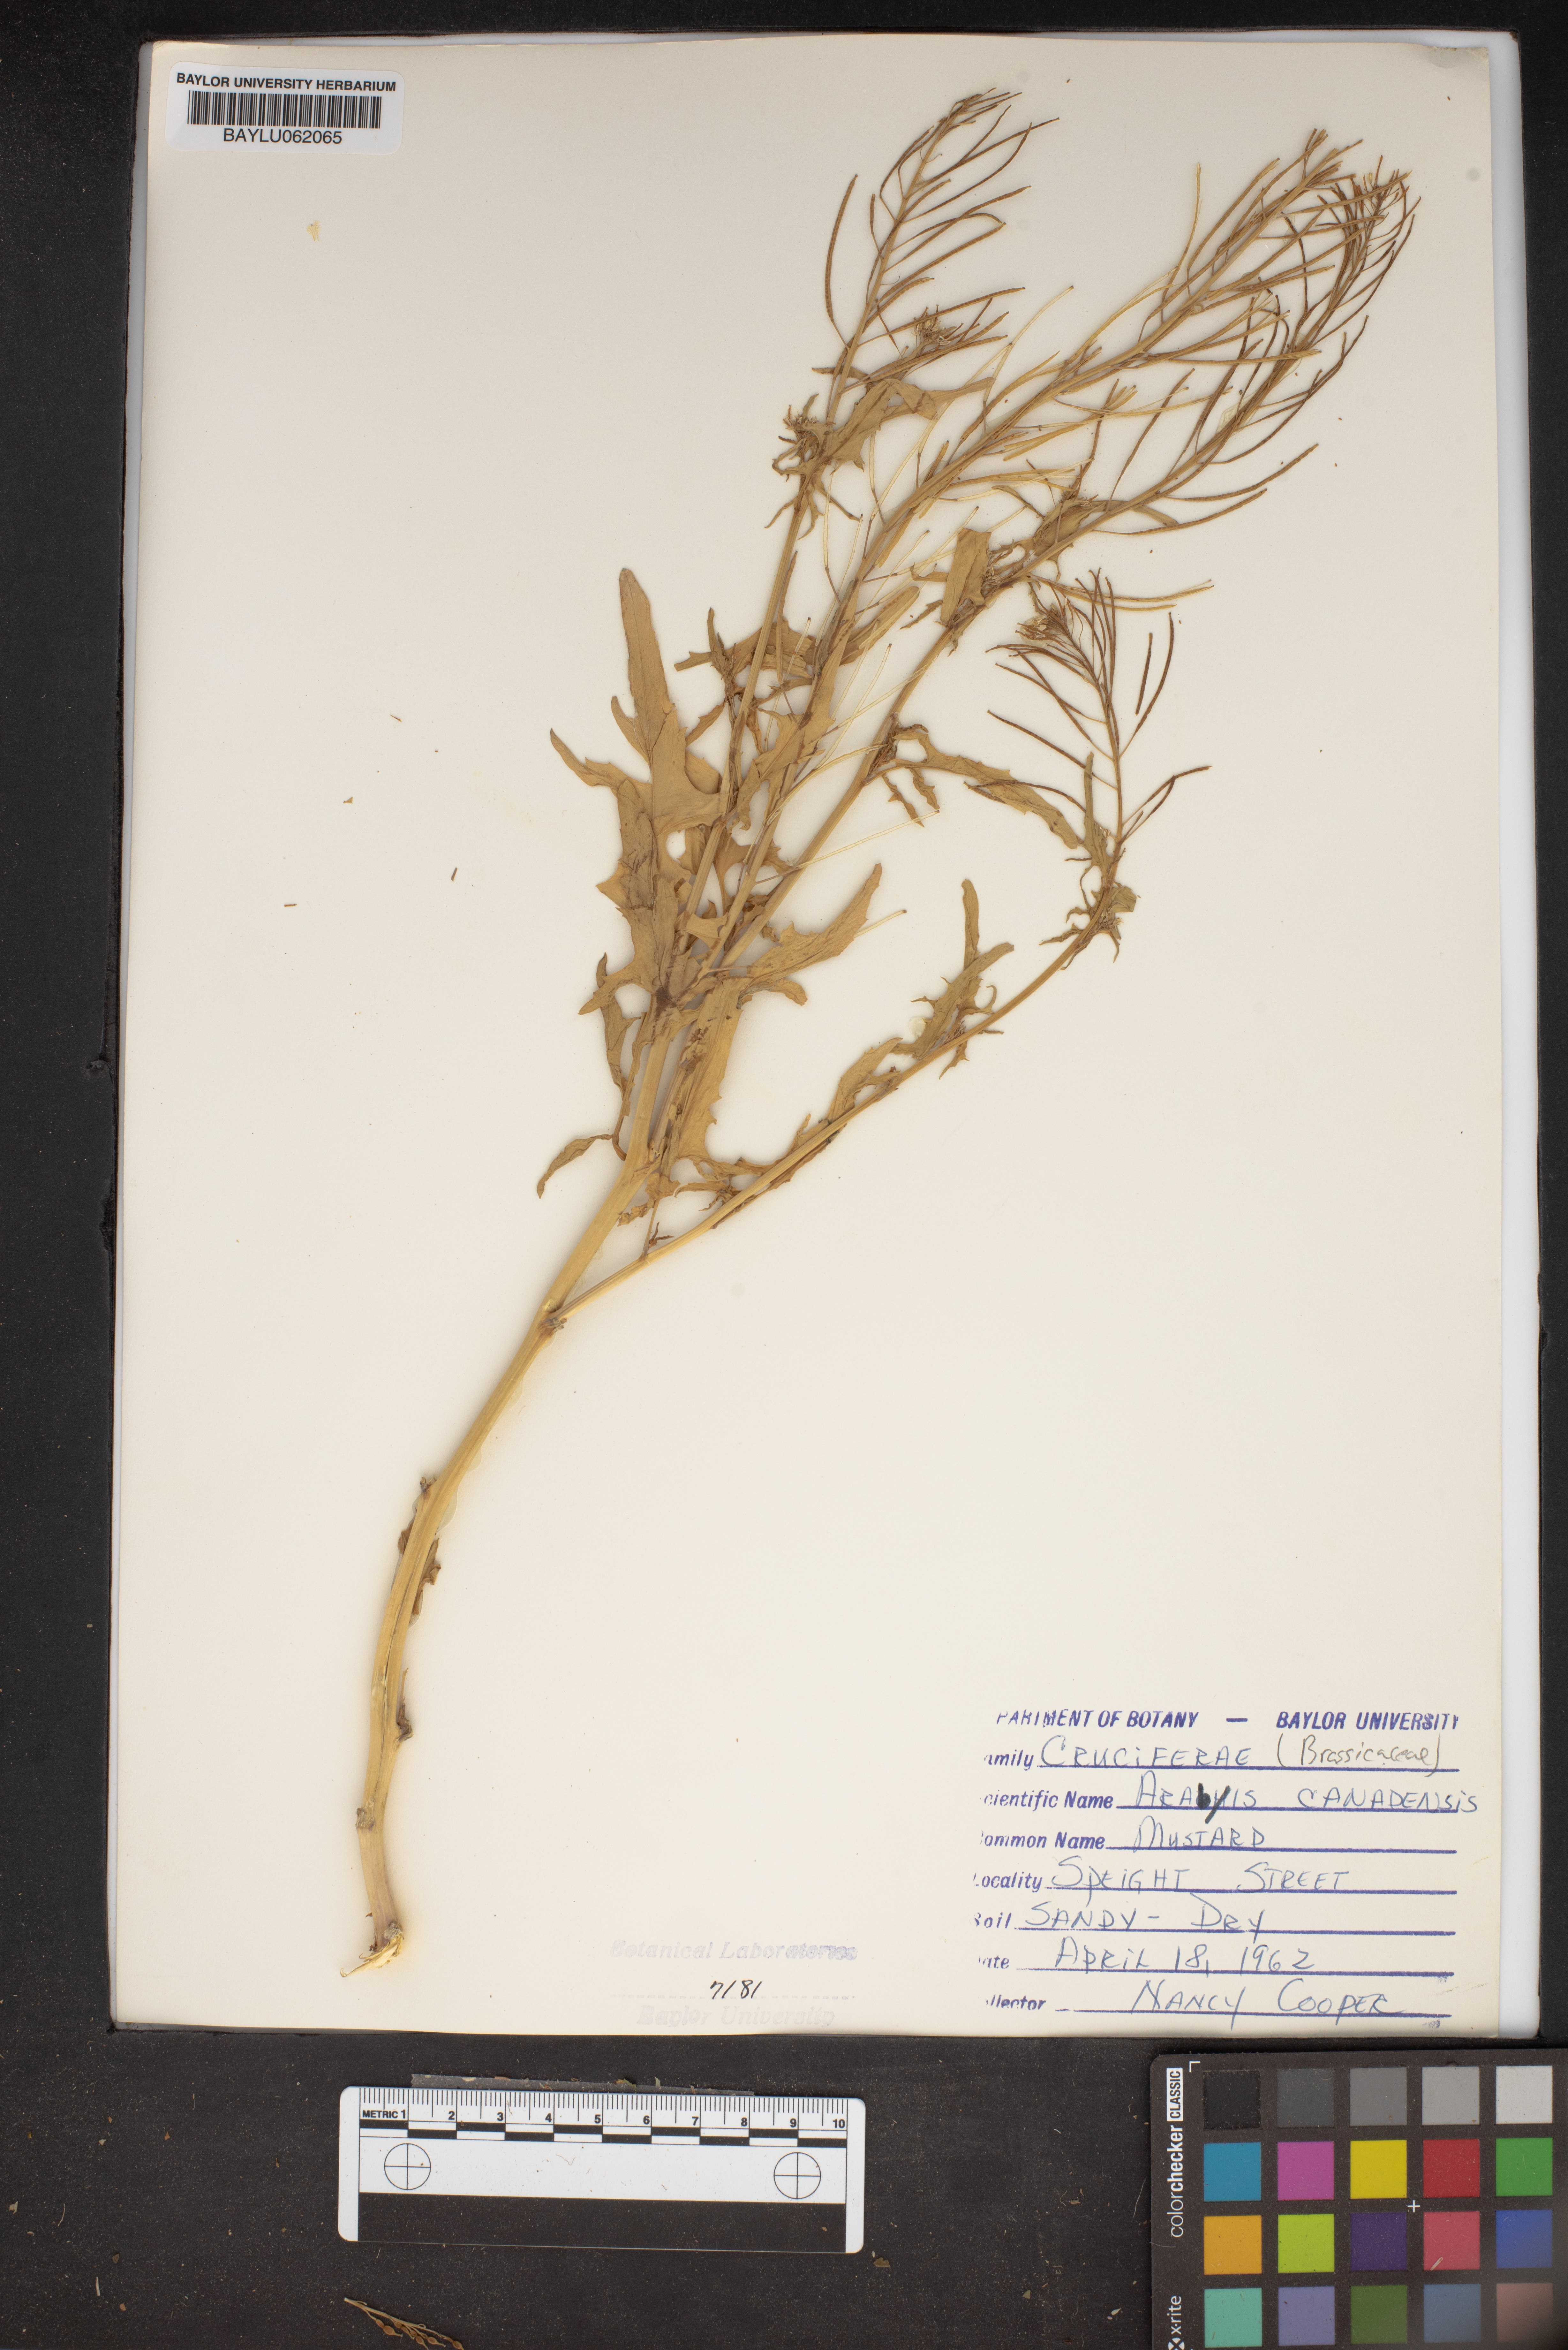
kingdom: Plantae
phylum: Tracheophyta
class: Magnoliopsida
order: Brassicales
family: Brassicaceae
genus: Borodinia
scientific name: Borodinia canadensis
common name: Sicklepod
